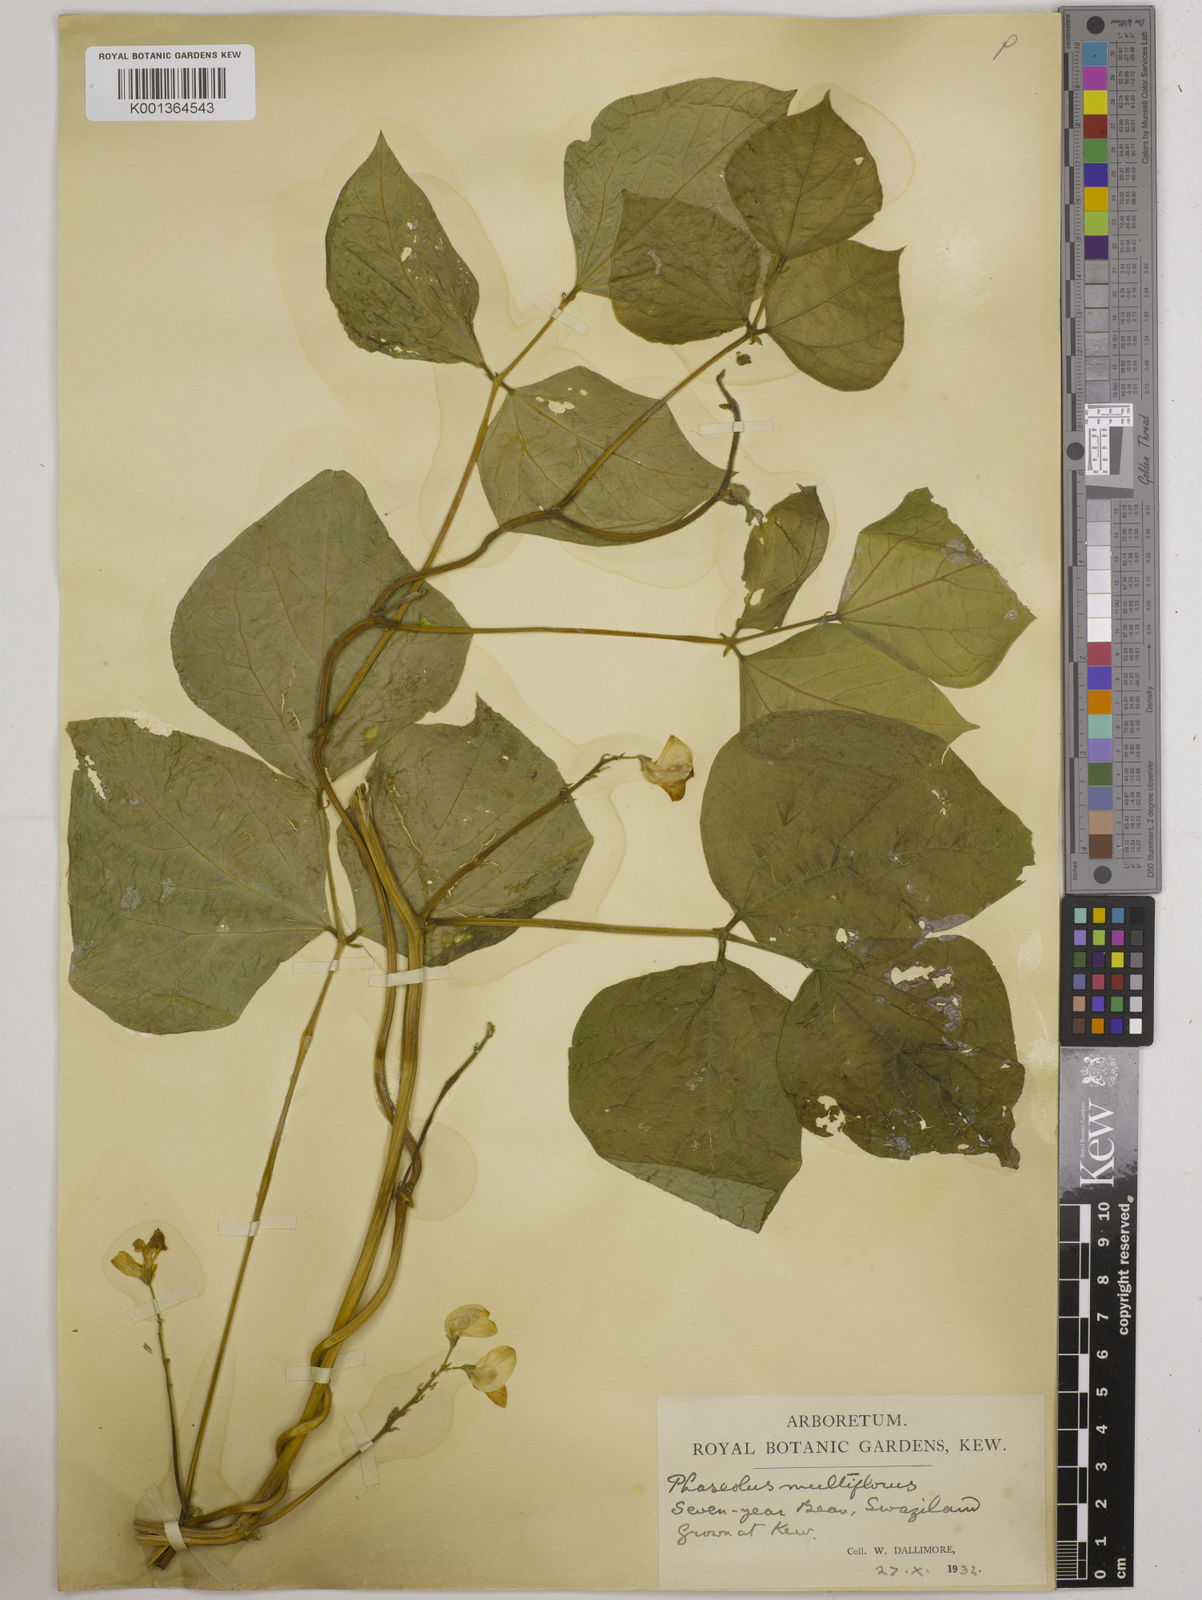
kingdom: Plantae
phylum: Tracheophyta
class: Magnoliopsida
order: Fabales
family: Fabaceae
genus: Phaseolus
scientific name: Phaseolus
